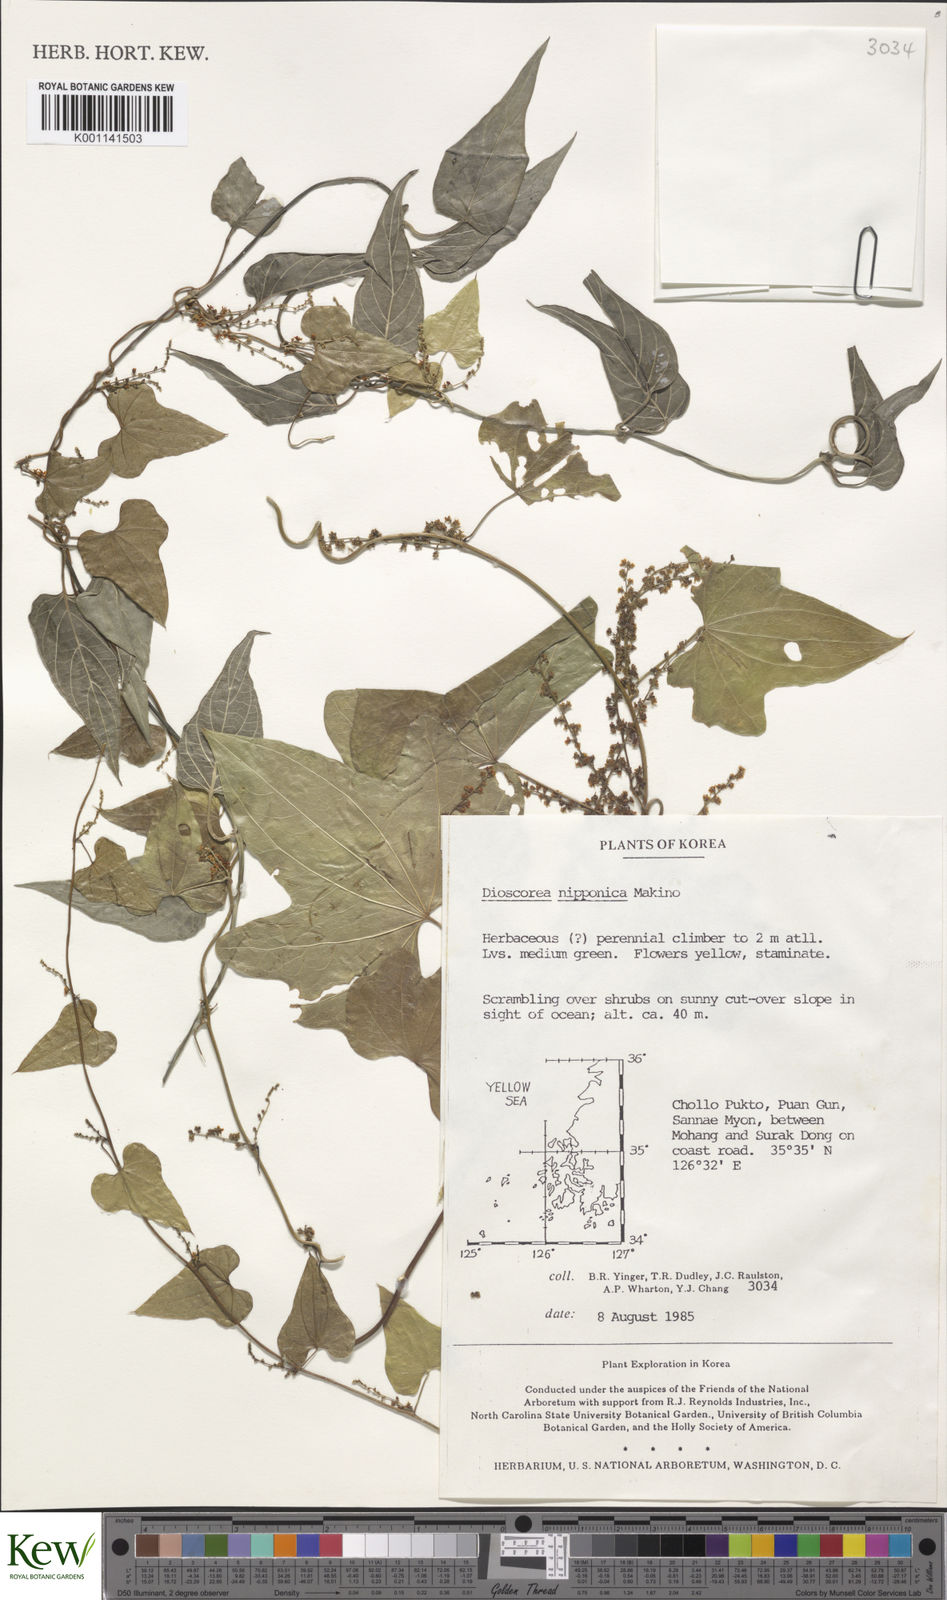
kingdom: Plantae
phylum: Tracheophyta
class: Liliopsida
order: Dioscoreales
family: Dioscoreaceae
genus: Dioscorea
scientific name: Dioscorea nipponica
